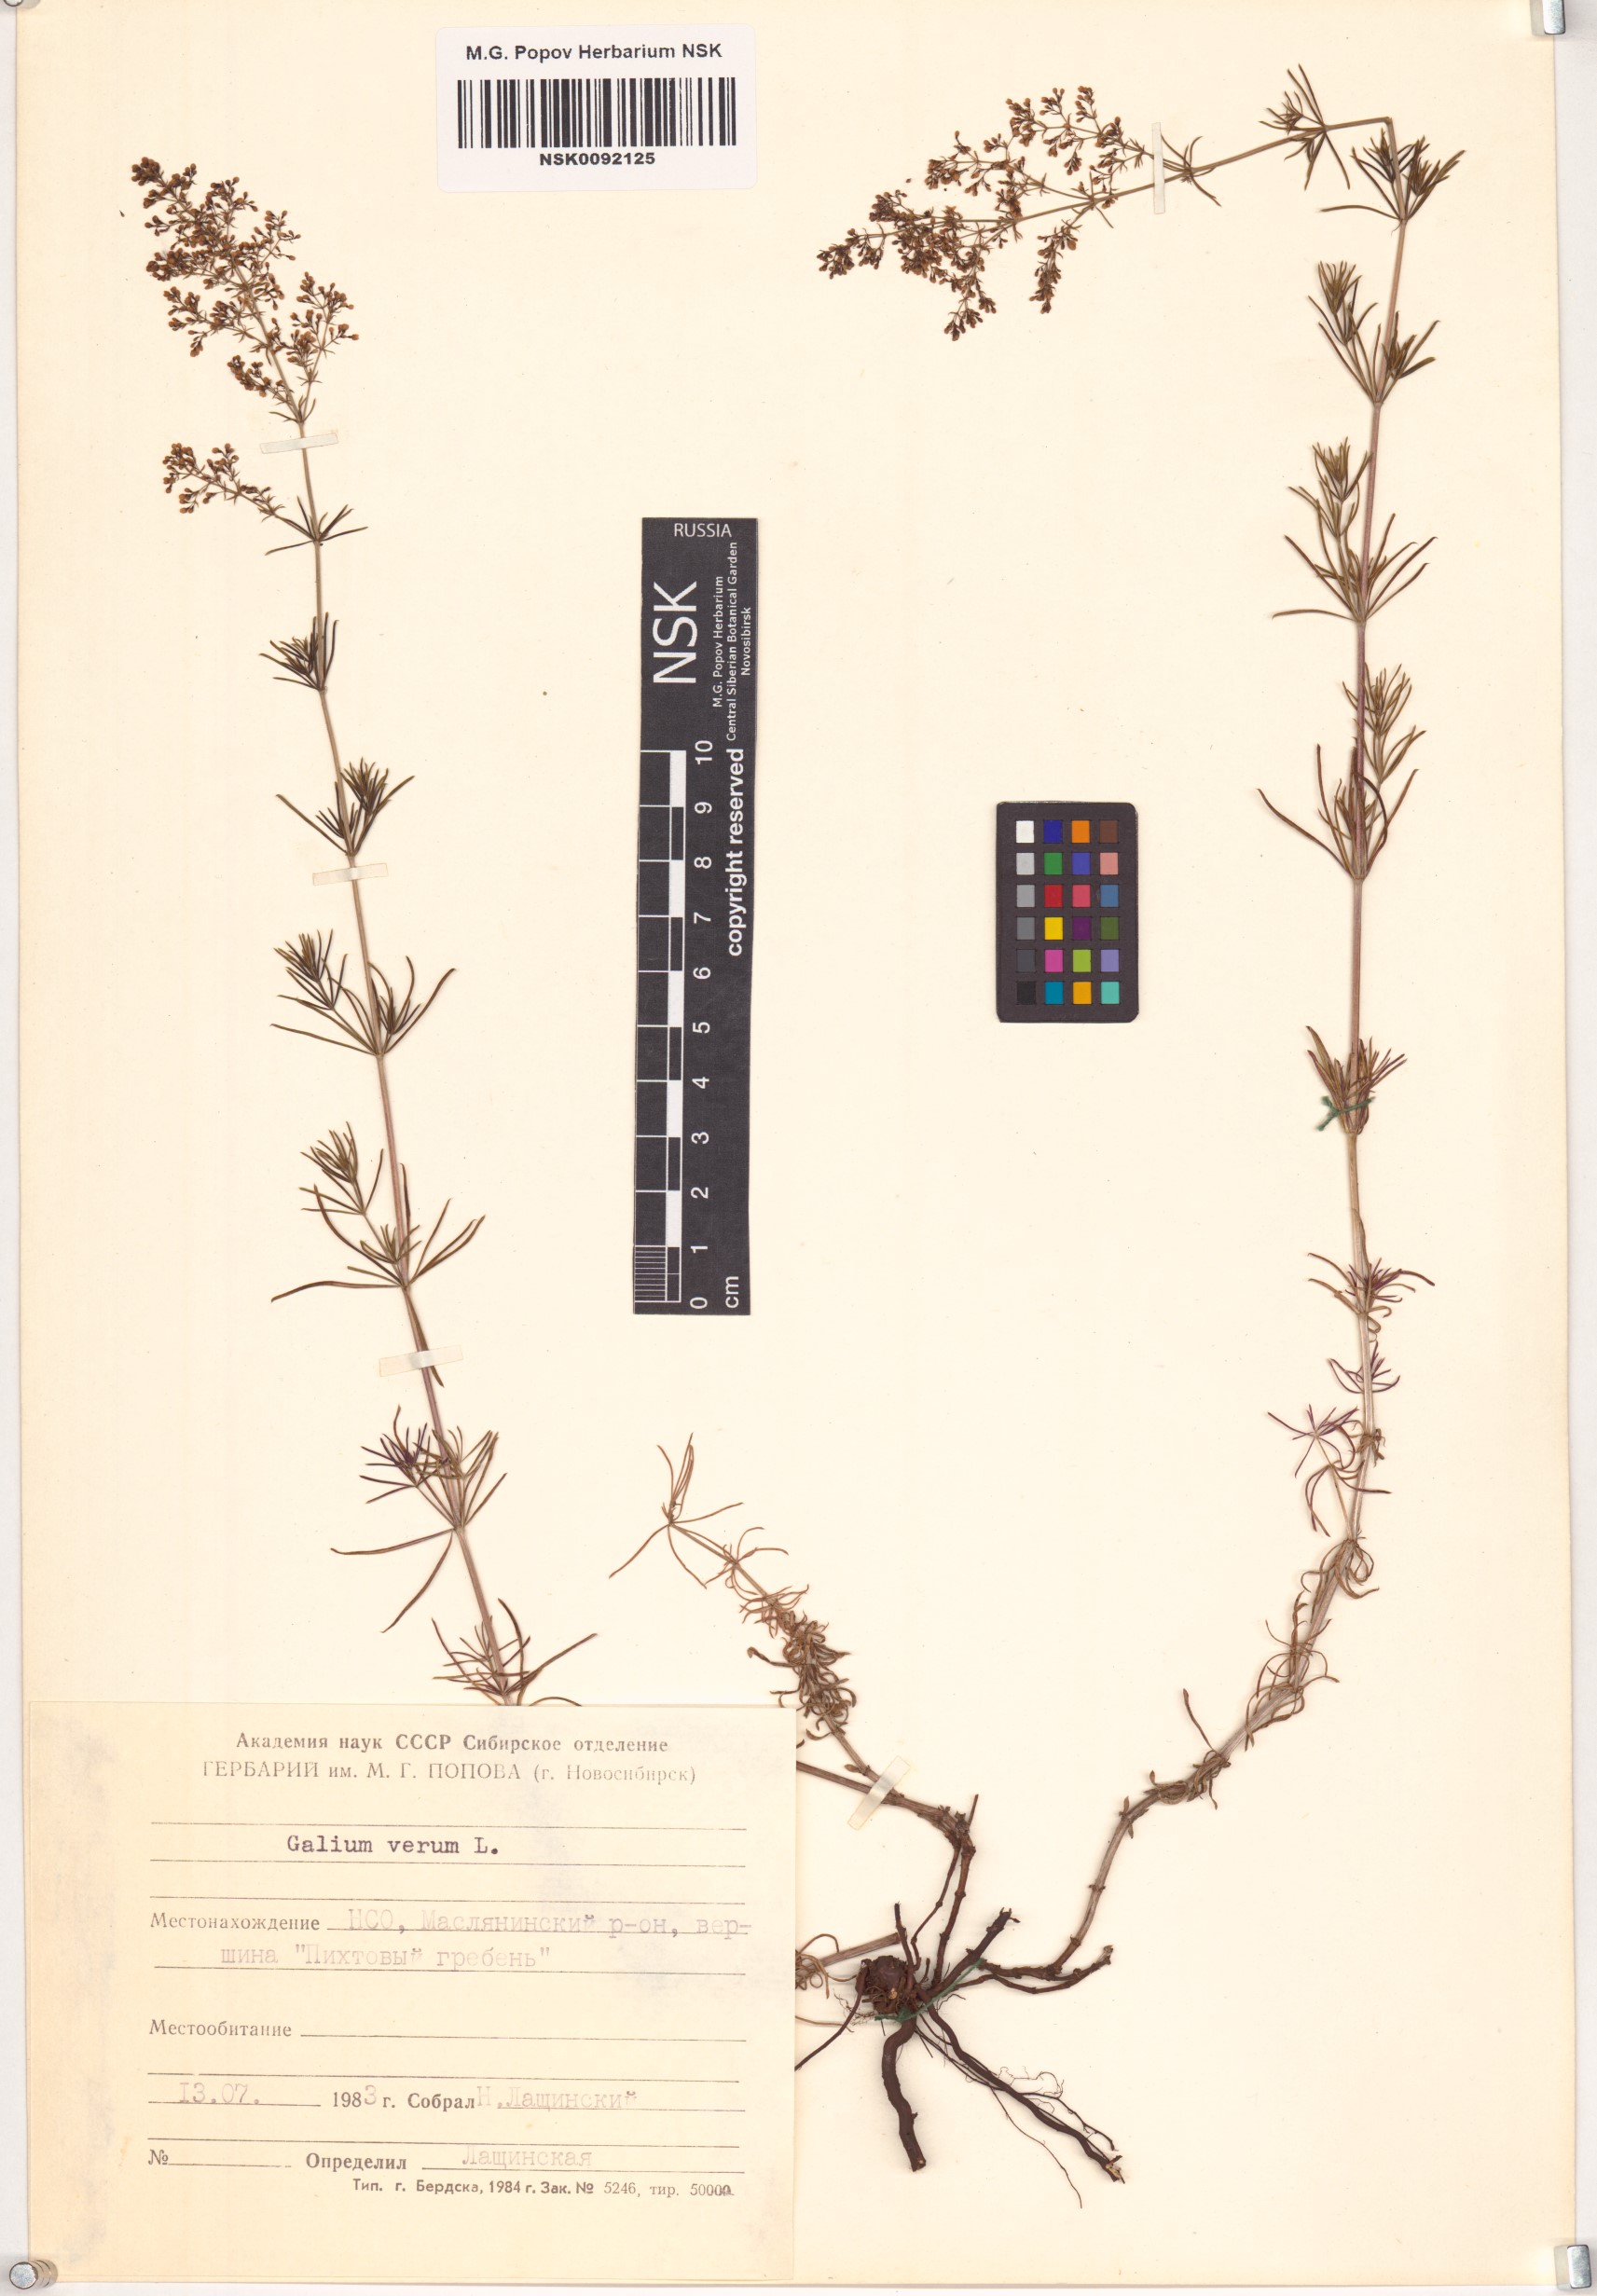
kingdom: Plantae
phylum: Tracheophyta
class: Magnoliopsida
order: Gentianales
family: Rubiaceae
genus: Galium
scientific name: Galium verum
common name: Lady's bedstraw
